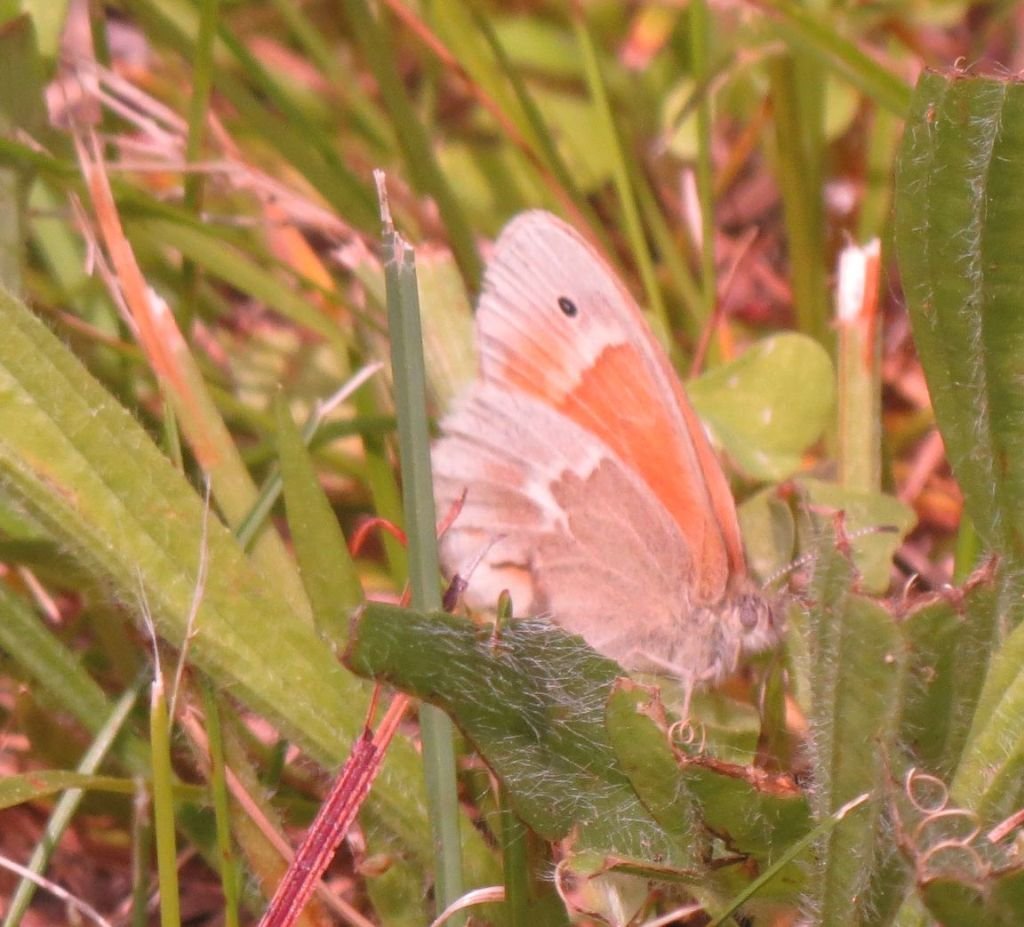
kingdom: Animalia
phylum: Arthropoda
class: Insecta
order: Lepidoptera
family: Nymphalidae
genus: Coenonympha
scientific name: Coenonympha tullia
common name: Large Heath
